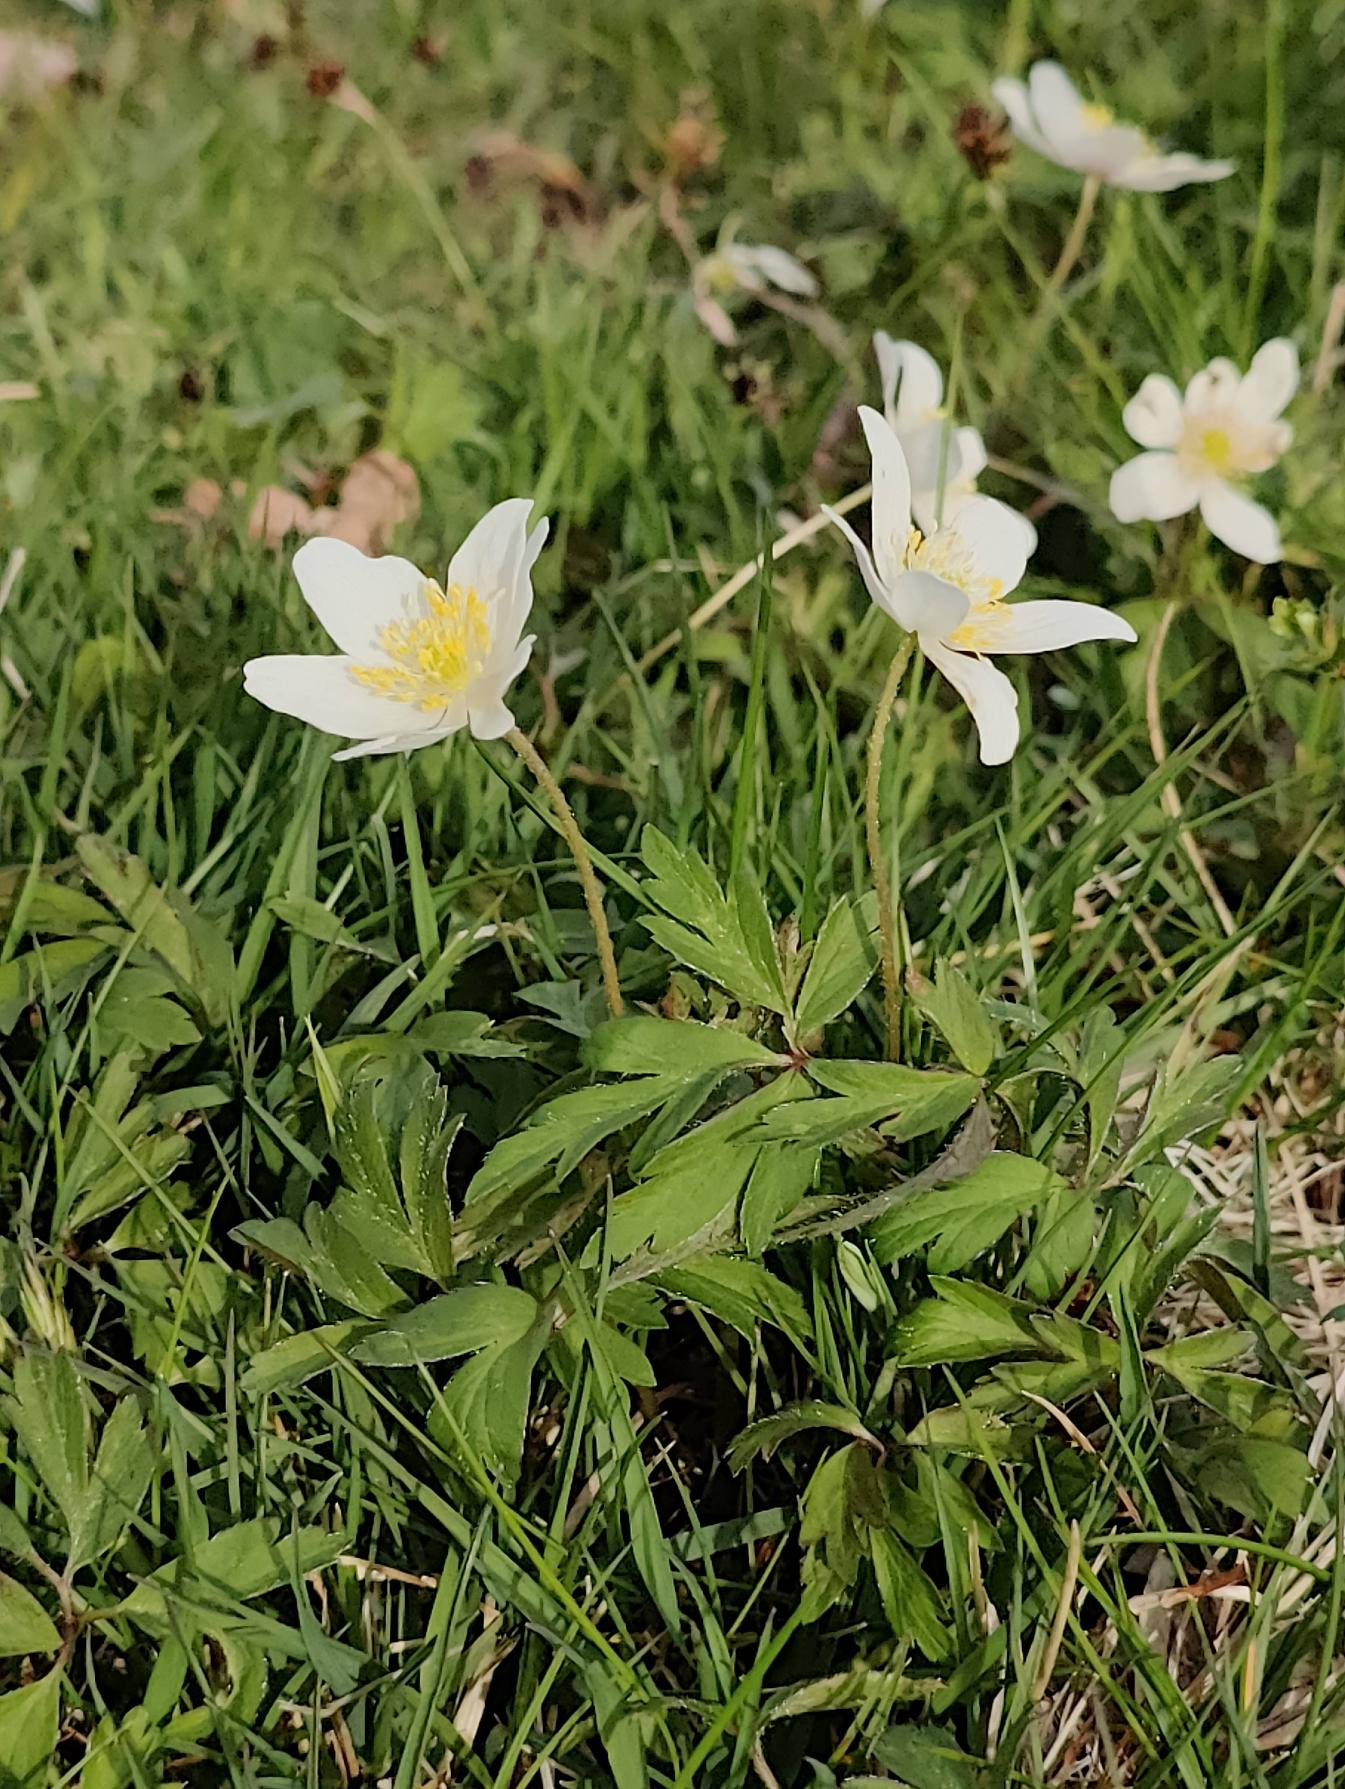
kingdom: Plantae
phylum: Tracheophyta
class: Magnoliopsida
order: Ranunculales
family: Ranunculaceae
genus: Anemone
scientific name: Anemone nemorosa
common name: Hvid anemone
